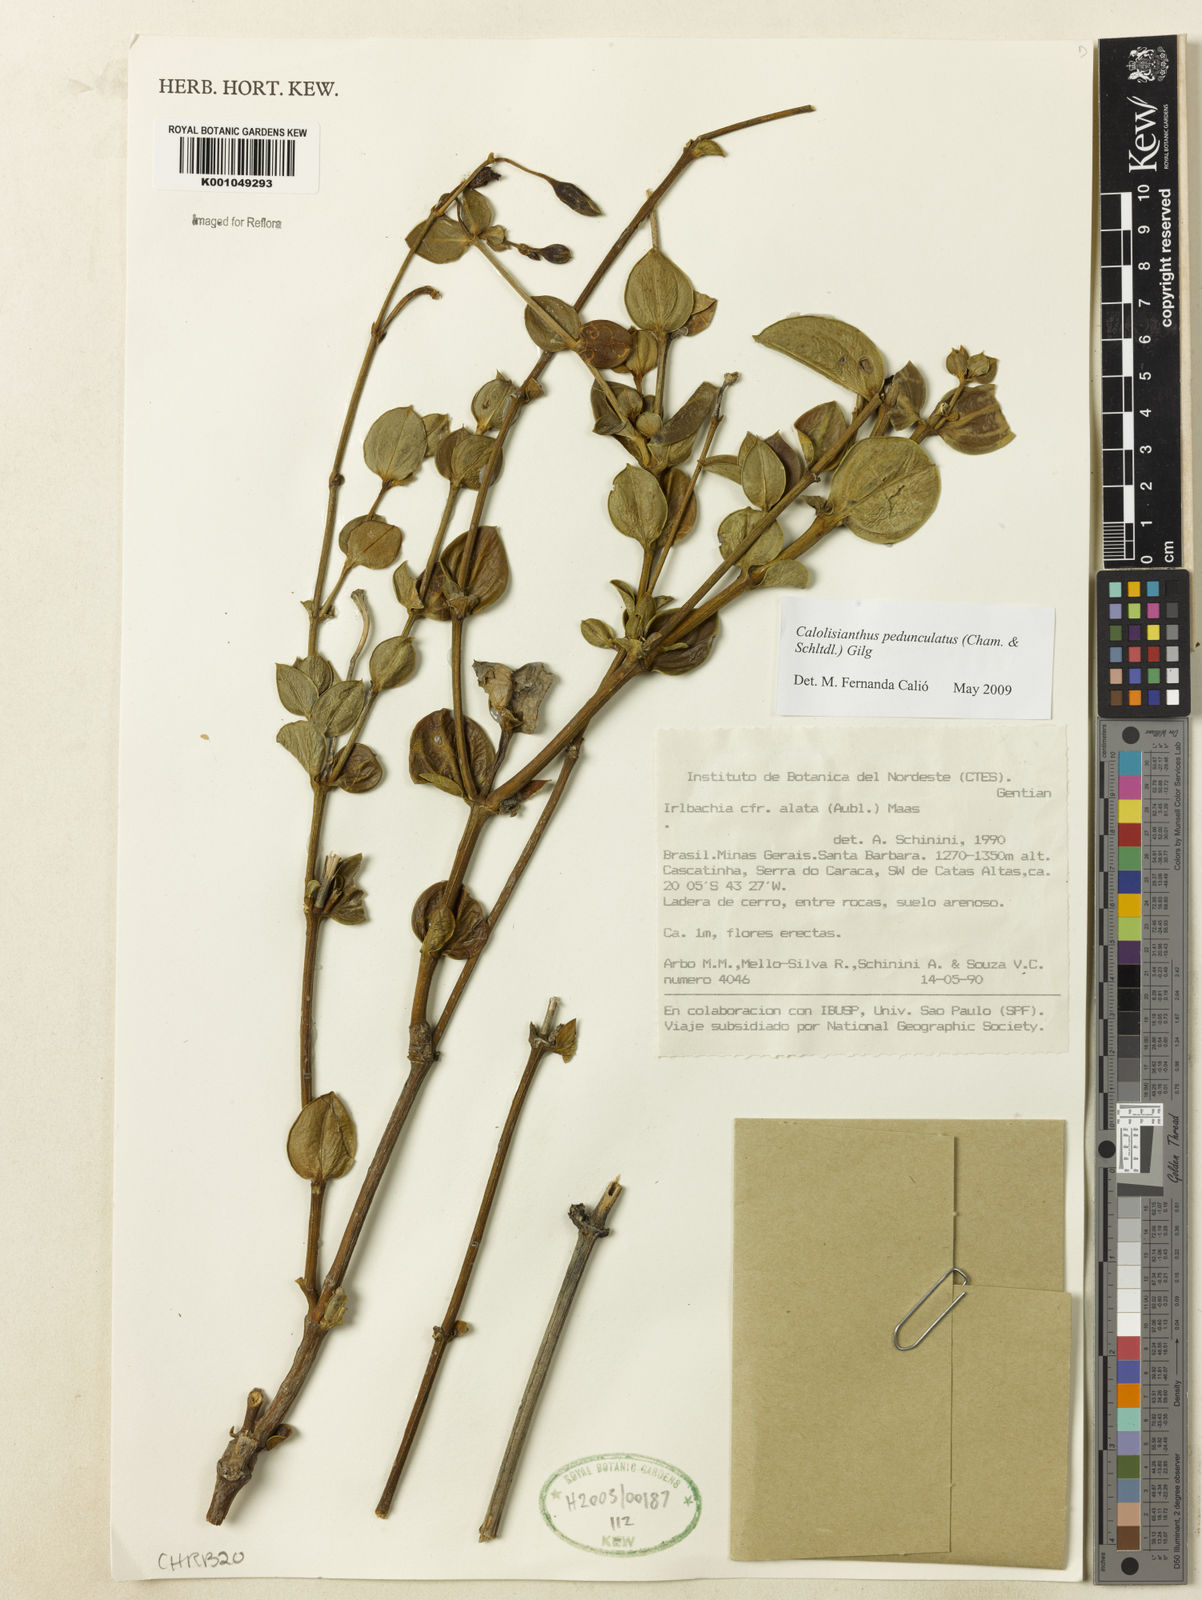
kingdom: Plantae
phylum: Tracheophyta
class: Magnoliopsida
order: Gentianales
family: Gentianaceae
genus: Calolisianthus
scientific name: Calolisianthus pedunculatus
